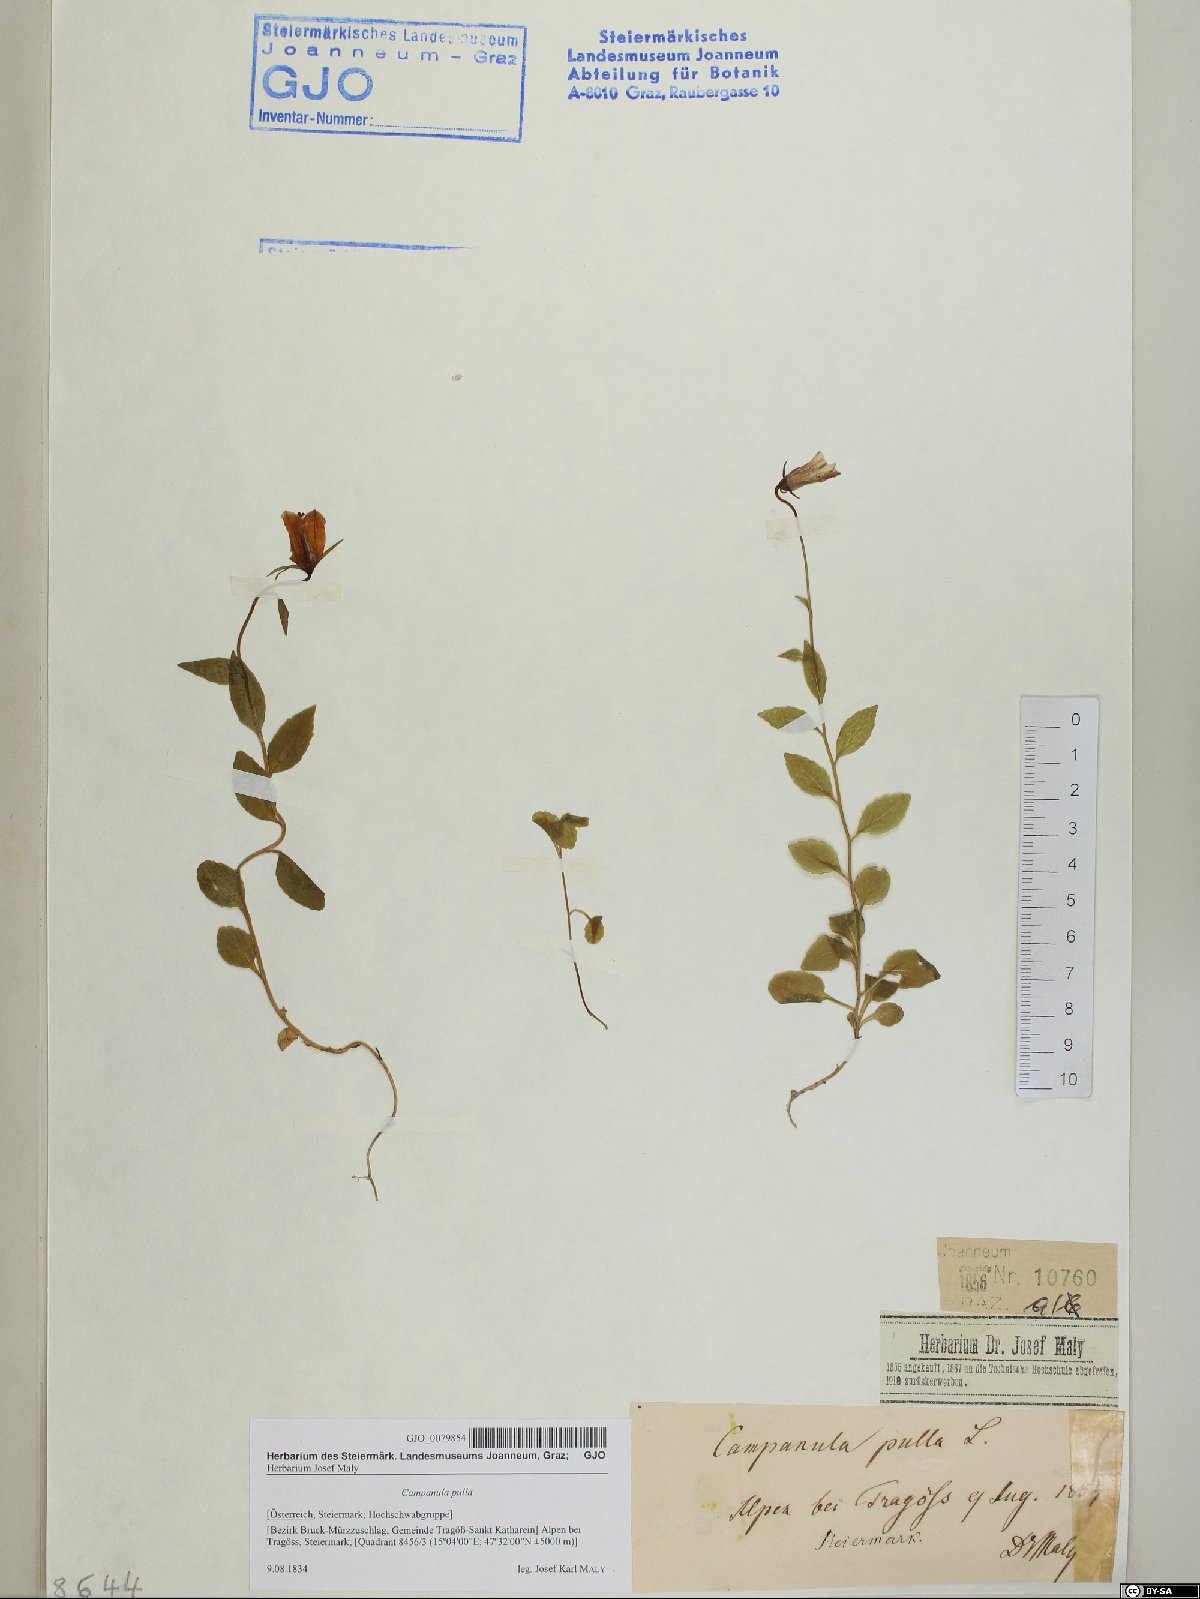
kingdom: Plantae
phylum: Tracheophyta
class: Magnoliopsida
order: Asterales
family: Campanulaceae
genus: Campanula
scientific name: Campanula pulla
